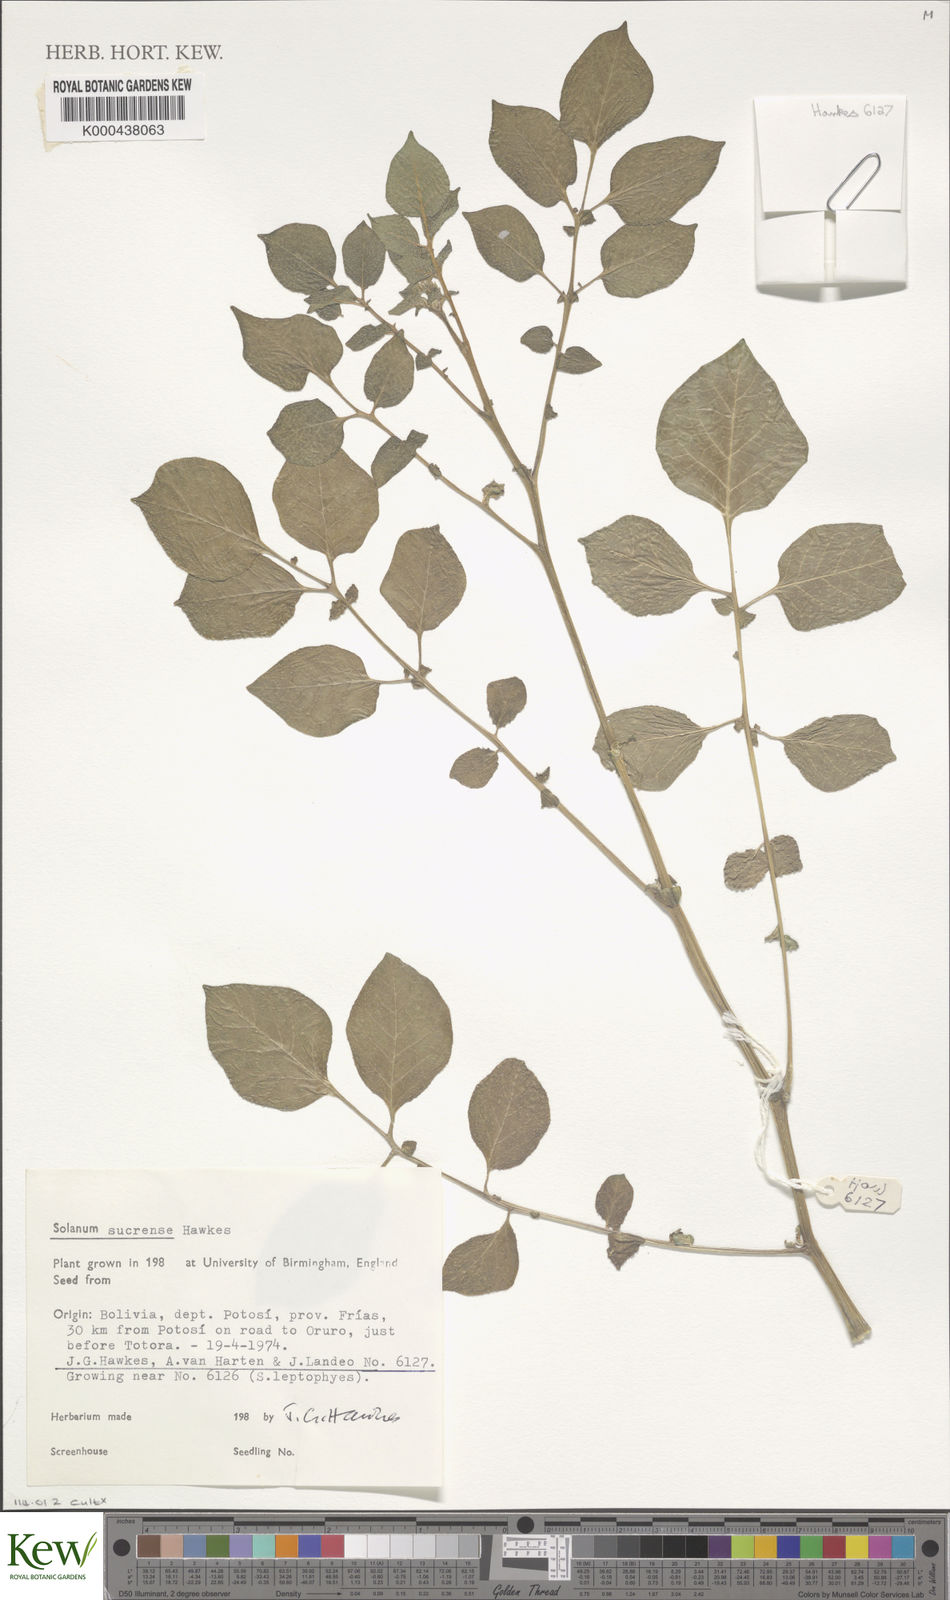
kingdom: Plantae
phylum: Tracheophyta
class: Magnoliopsida
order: Solanales
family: Solanaceae
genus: Solanum
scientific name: Solanum brevicaule
